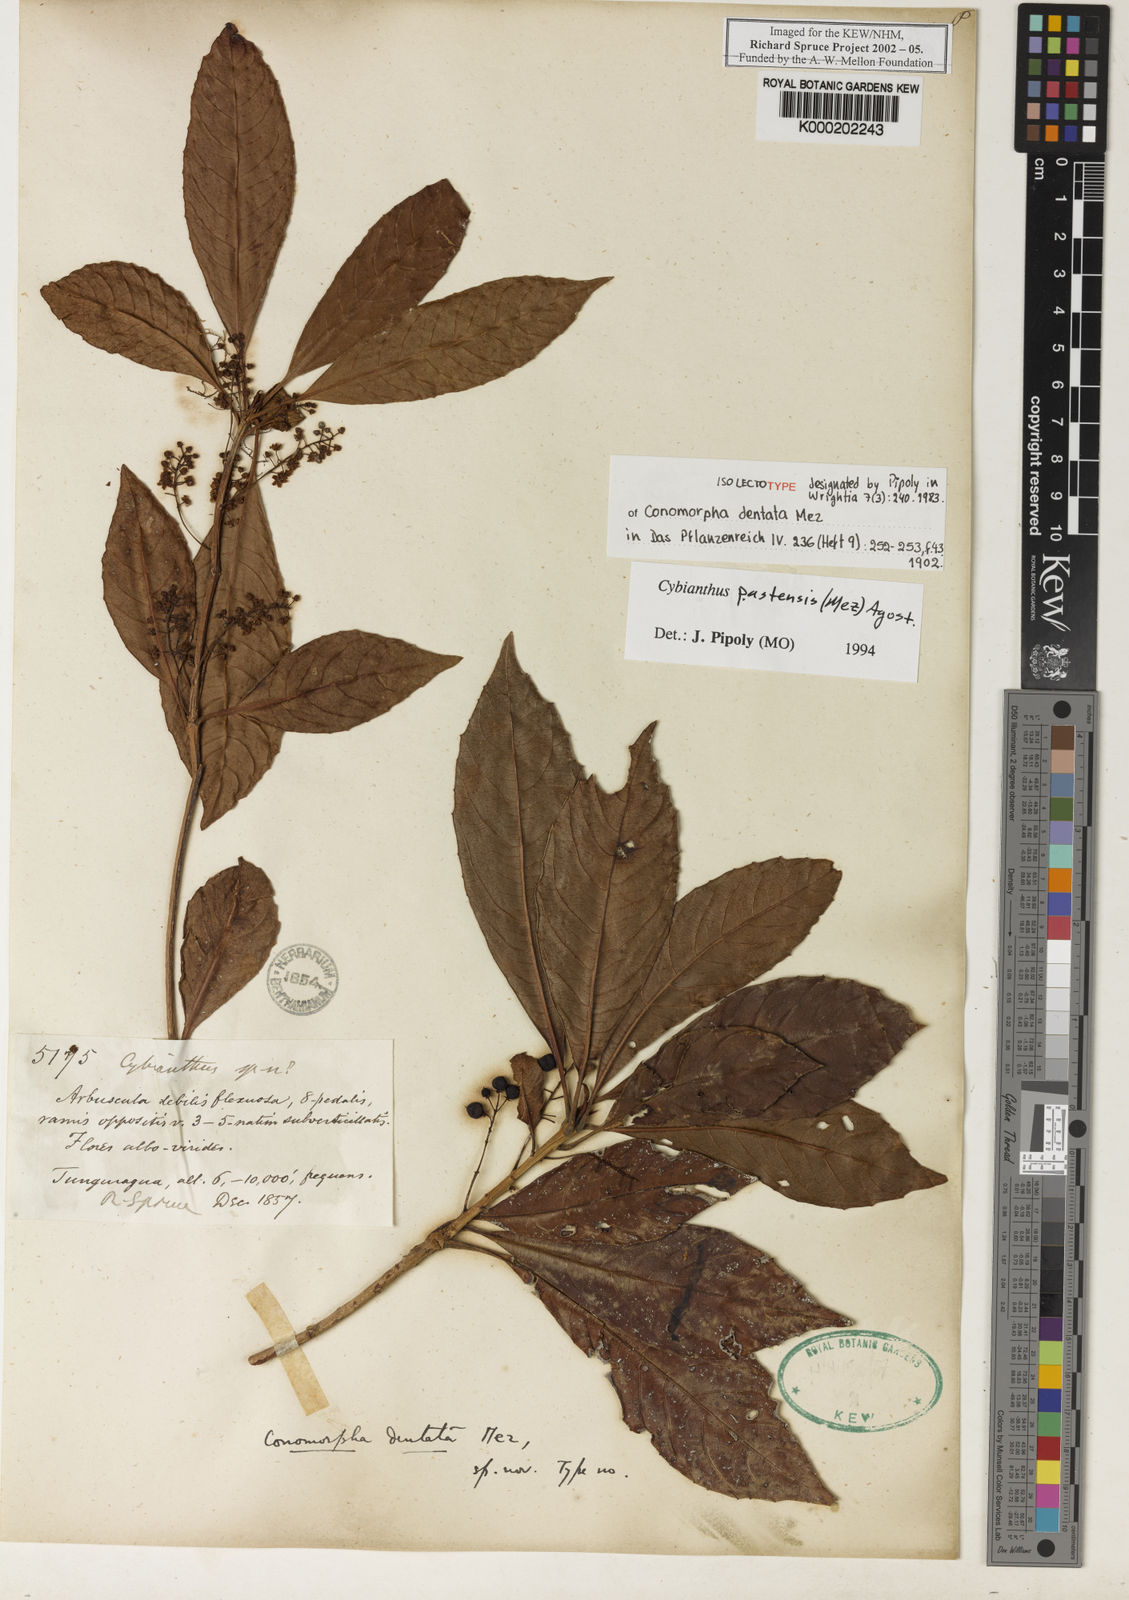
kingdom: Plantae
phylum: Tracheophyta
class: Magnoliopsida
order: Ericales
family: Primulaceae
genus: Cybianthus
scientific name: Cybianthus pastensis
